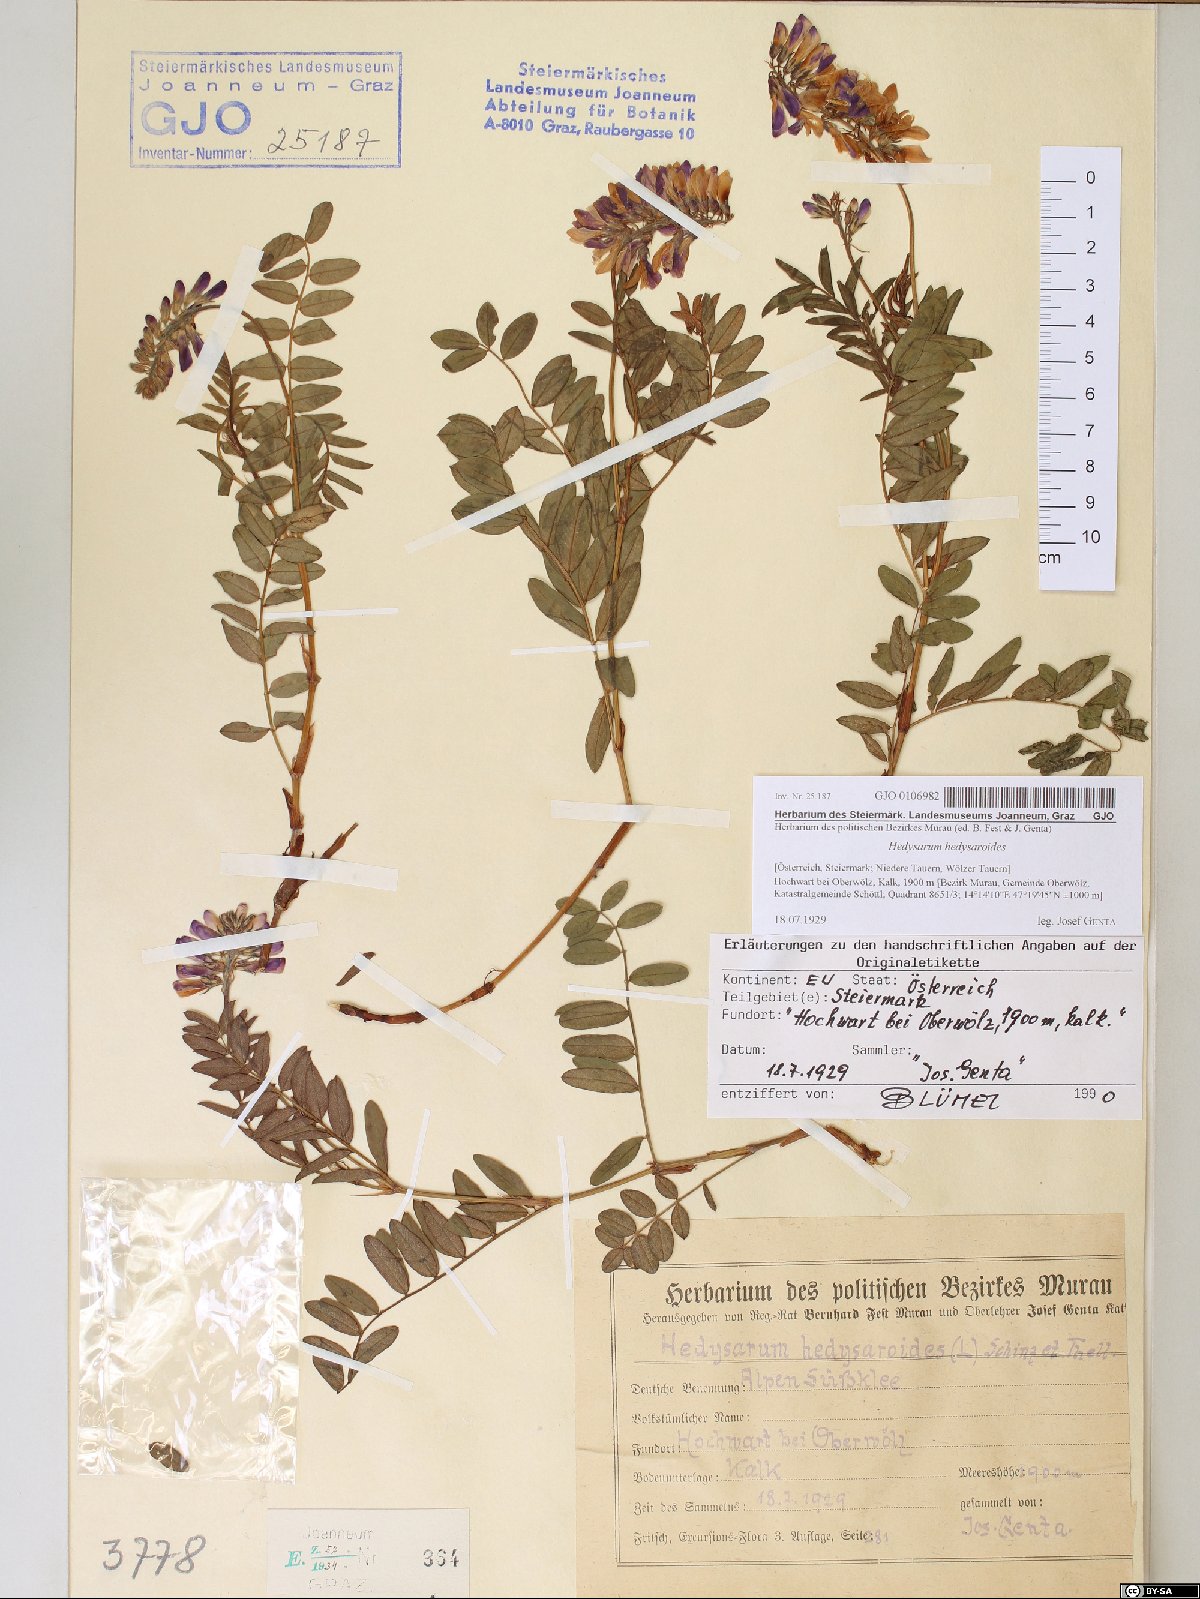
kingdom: Plantae
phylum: Tracheophyta
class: Magnoliopsida
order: Fabales
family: Fabaceae
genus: Hedysarum
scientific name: Hedysarum hedysaroides
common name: Alpine french-honeysuckle
